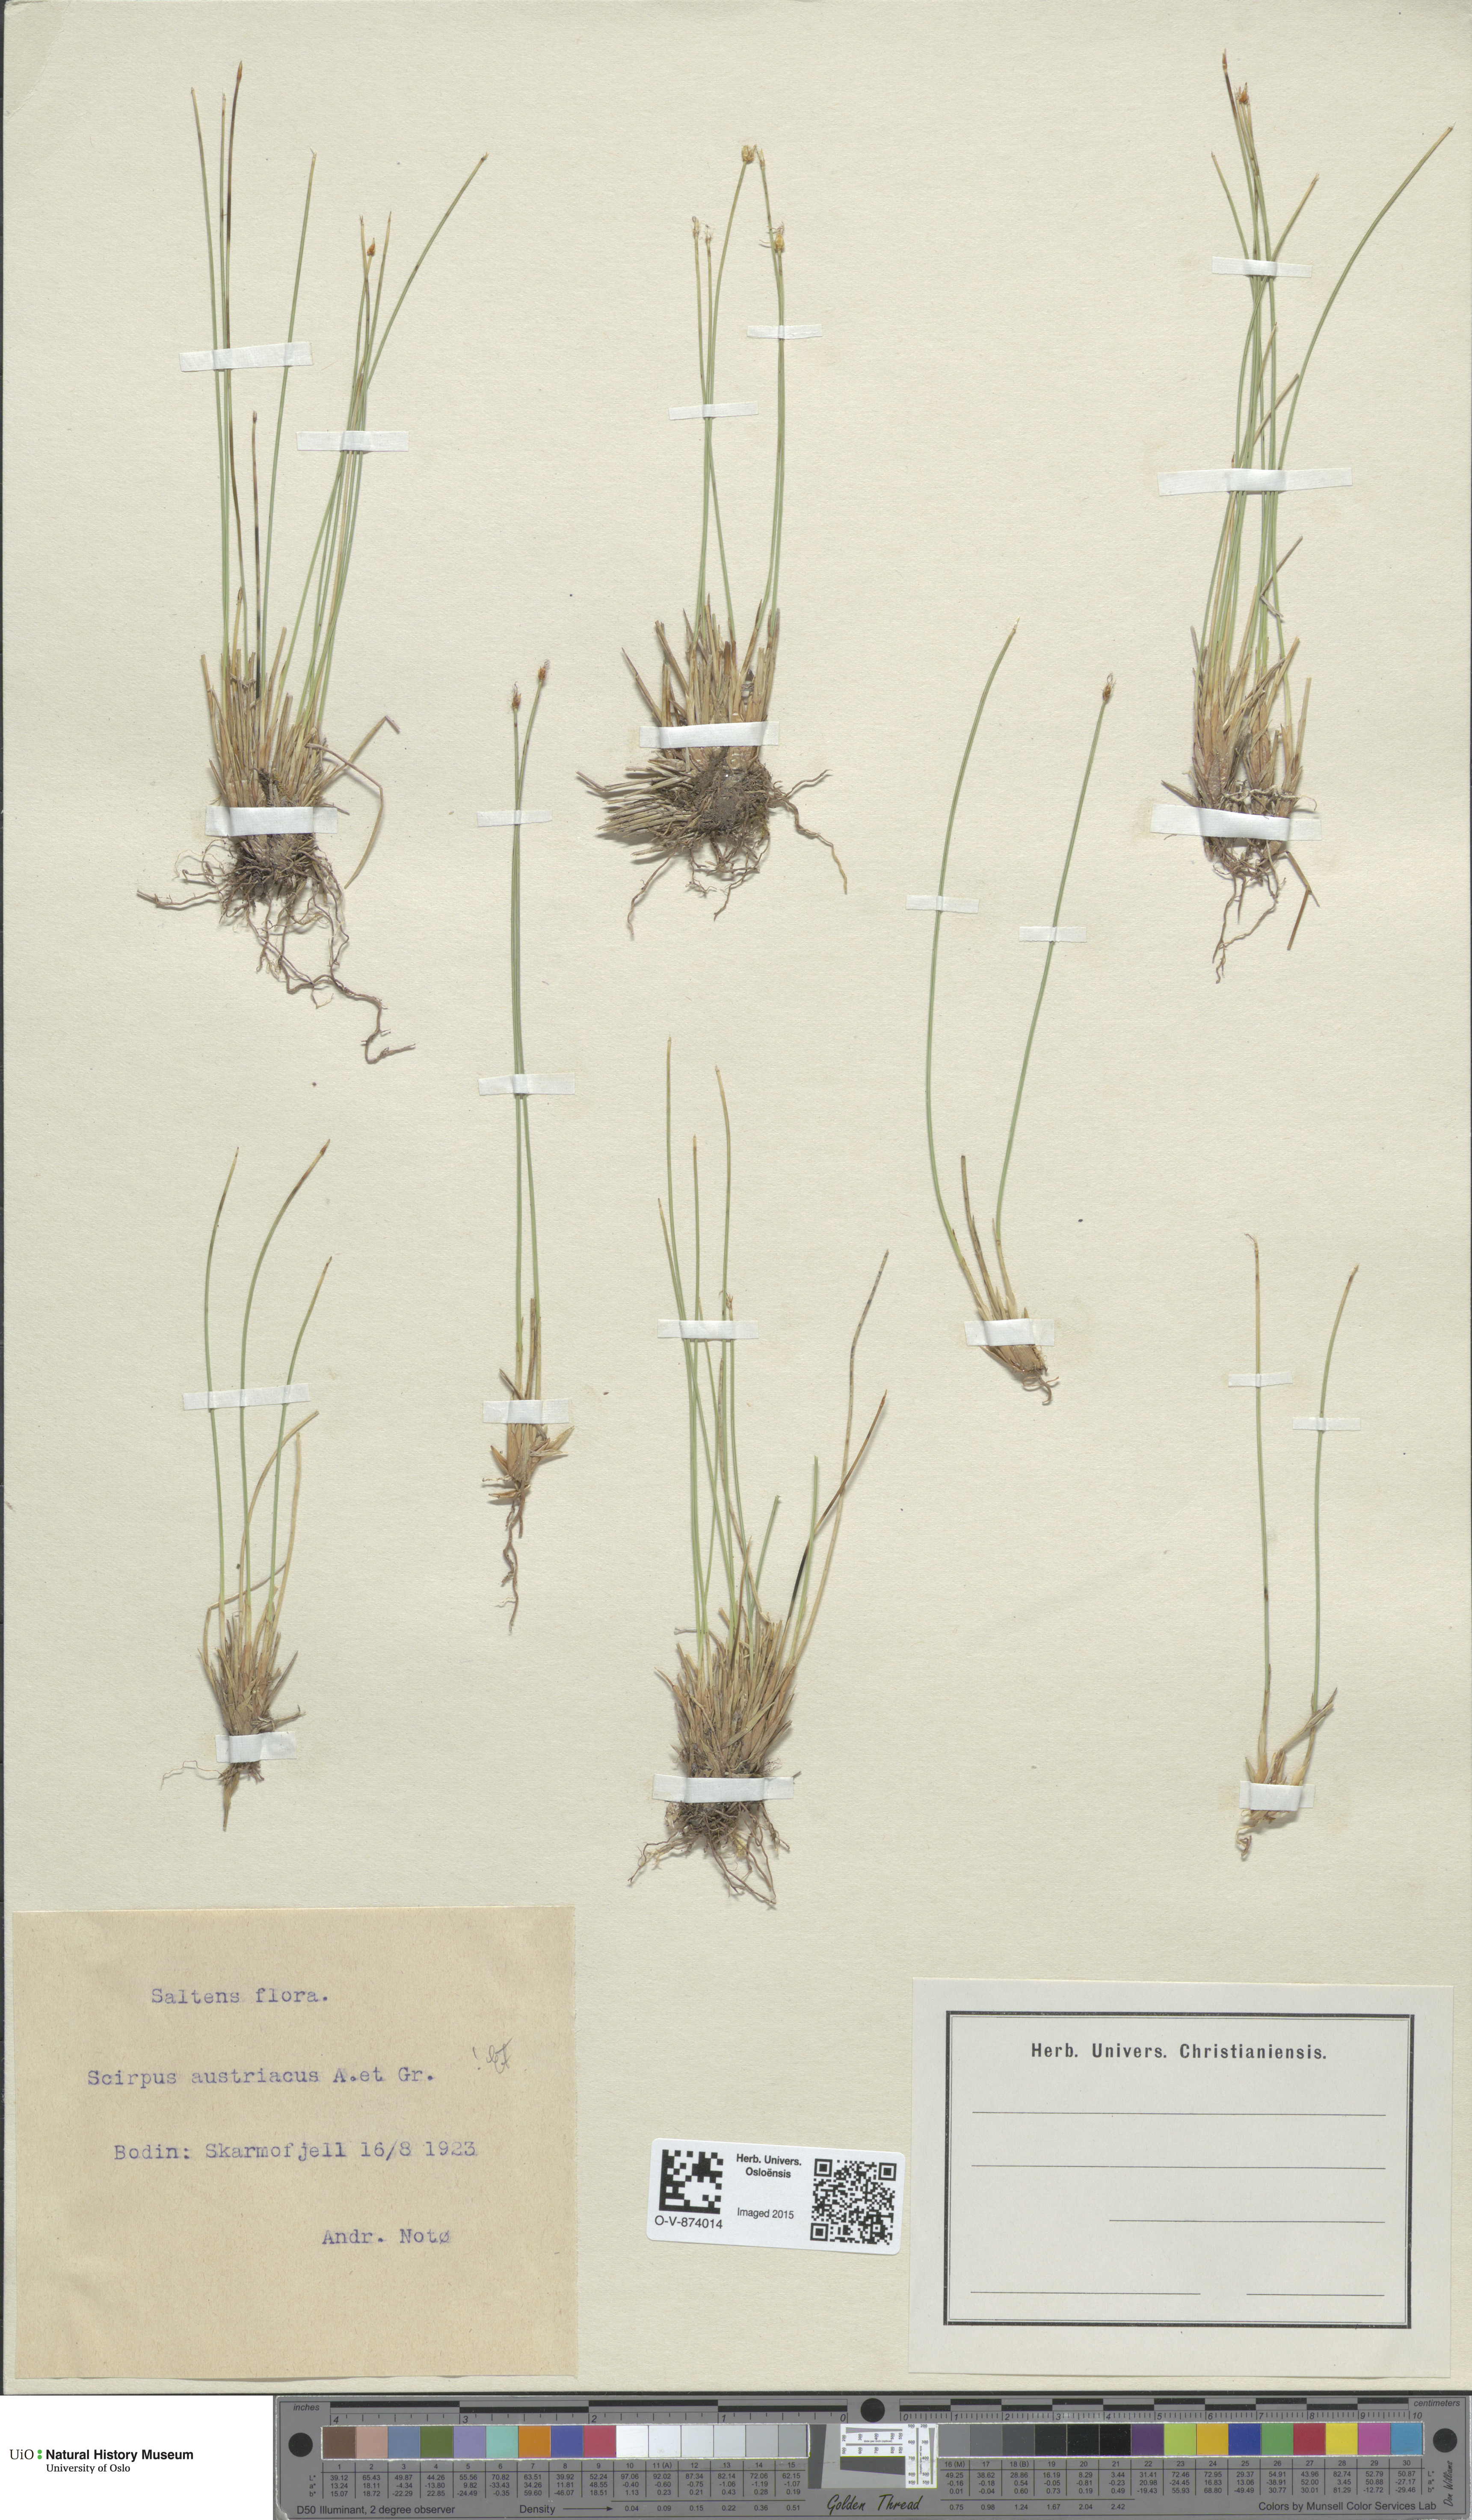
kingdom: Plantae
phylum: Tracheophyta
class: Liliopsida
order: Poales
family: Cyperaceae
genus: Trichophorum
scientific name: Trichophorum cespitosum
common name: Cespitose bulrush
